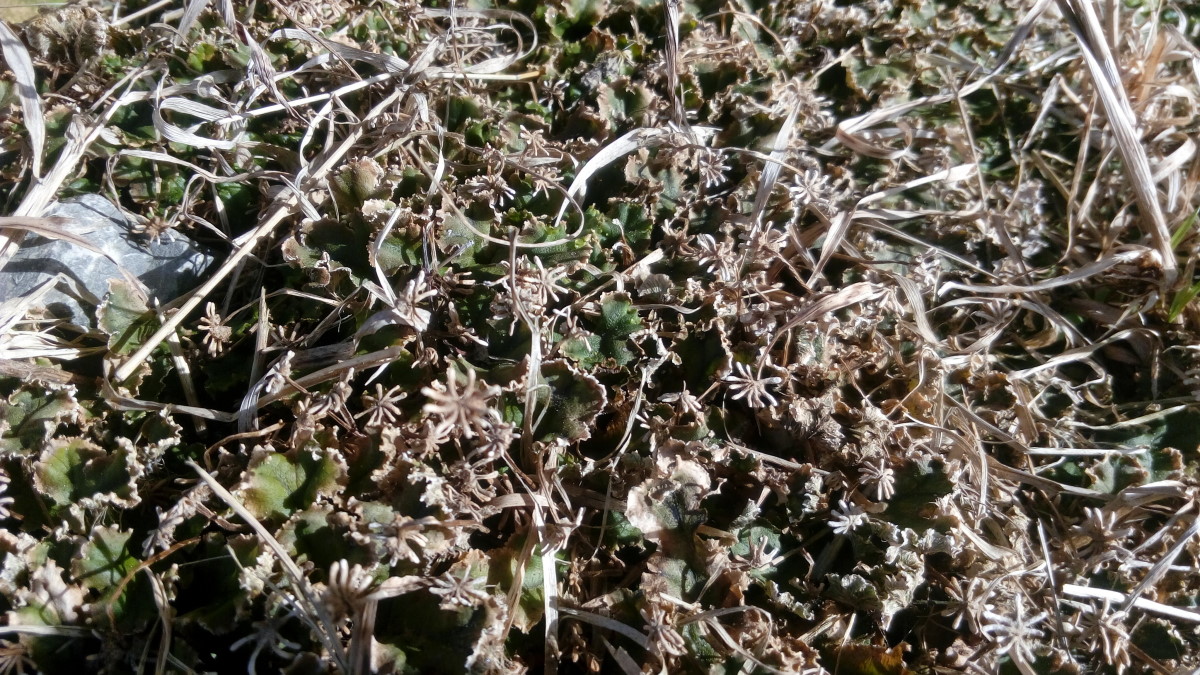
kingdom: Plantae
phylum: Marchantiophyta
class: Marchantiopsida
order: Marchantiales
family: Marchantiaceae
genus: Marchantia
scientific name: Marchantia
